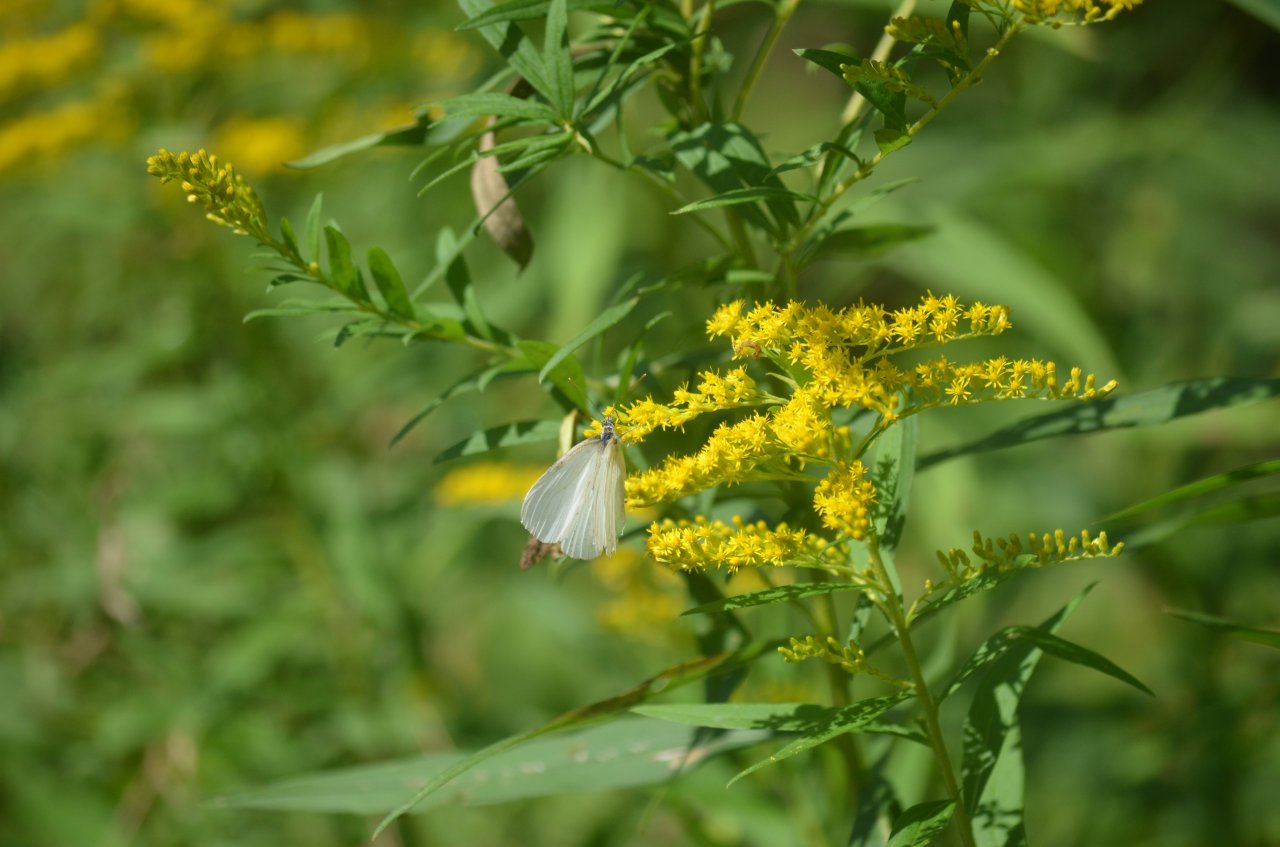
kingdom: Animalia
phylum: Arthropoda
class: Insecta
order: Lepidoptera
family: Pieridae
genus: Pieris
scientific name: Pieris oleracea
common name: Mustard White
